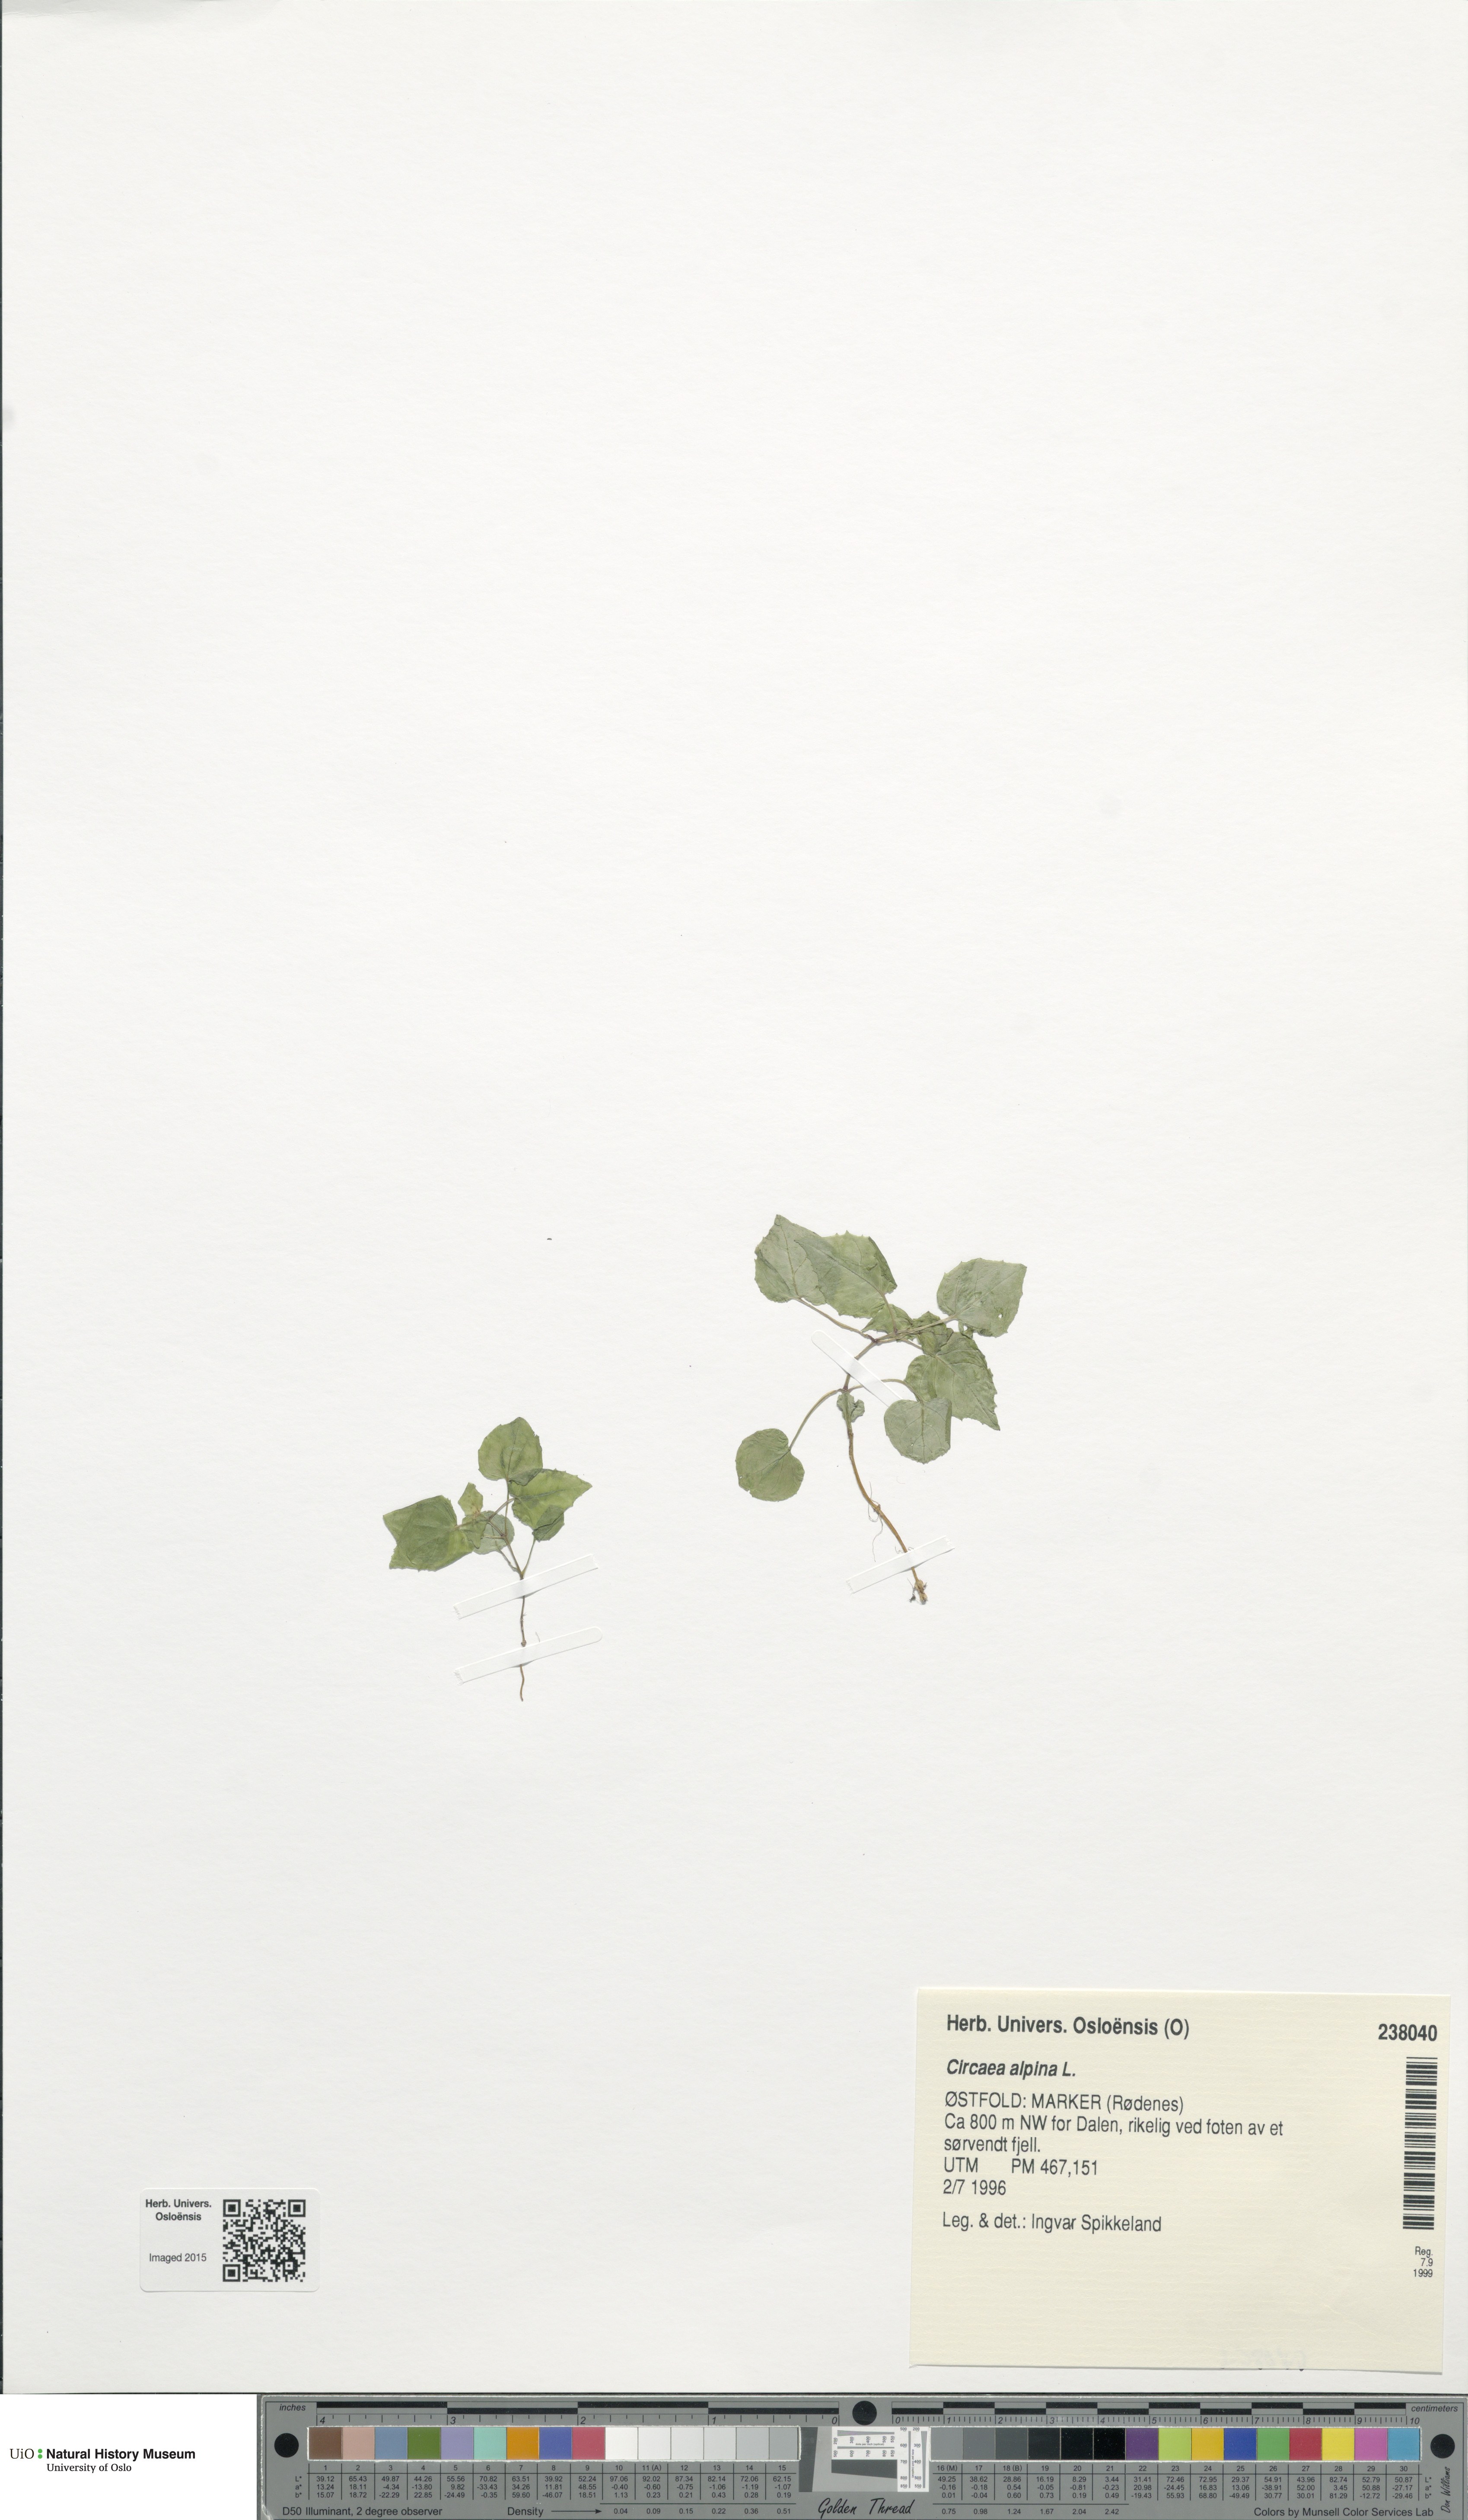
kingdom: Plantae
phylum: Tracheophyta
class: Magnoliopsida
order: Myrtales
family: Onagraceae
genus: Circaea
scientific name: Circaea alpina
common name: Alpine enchanter's-nightshade
